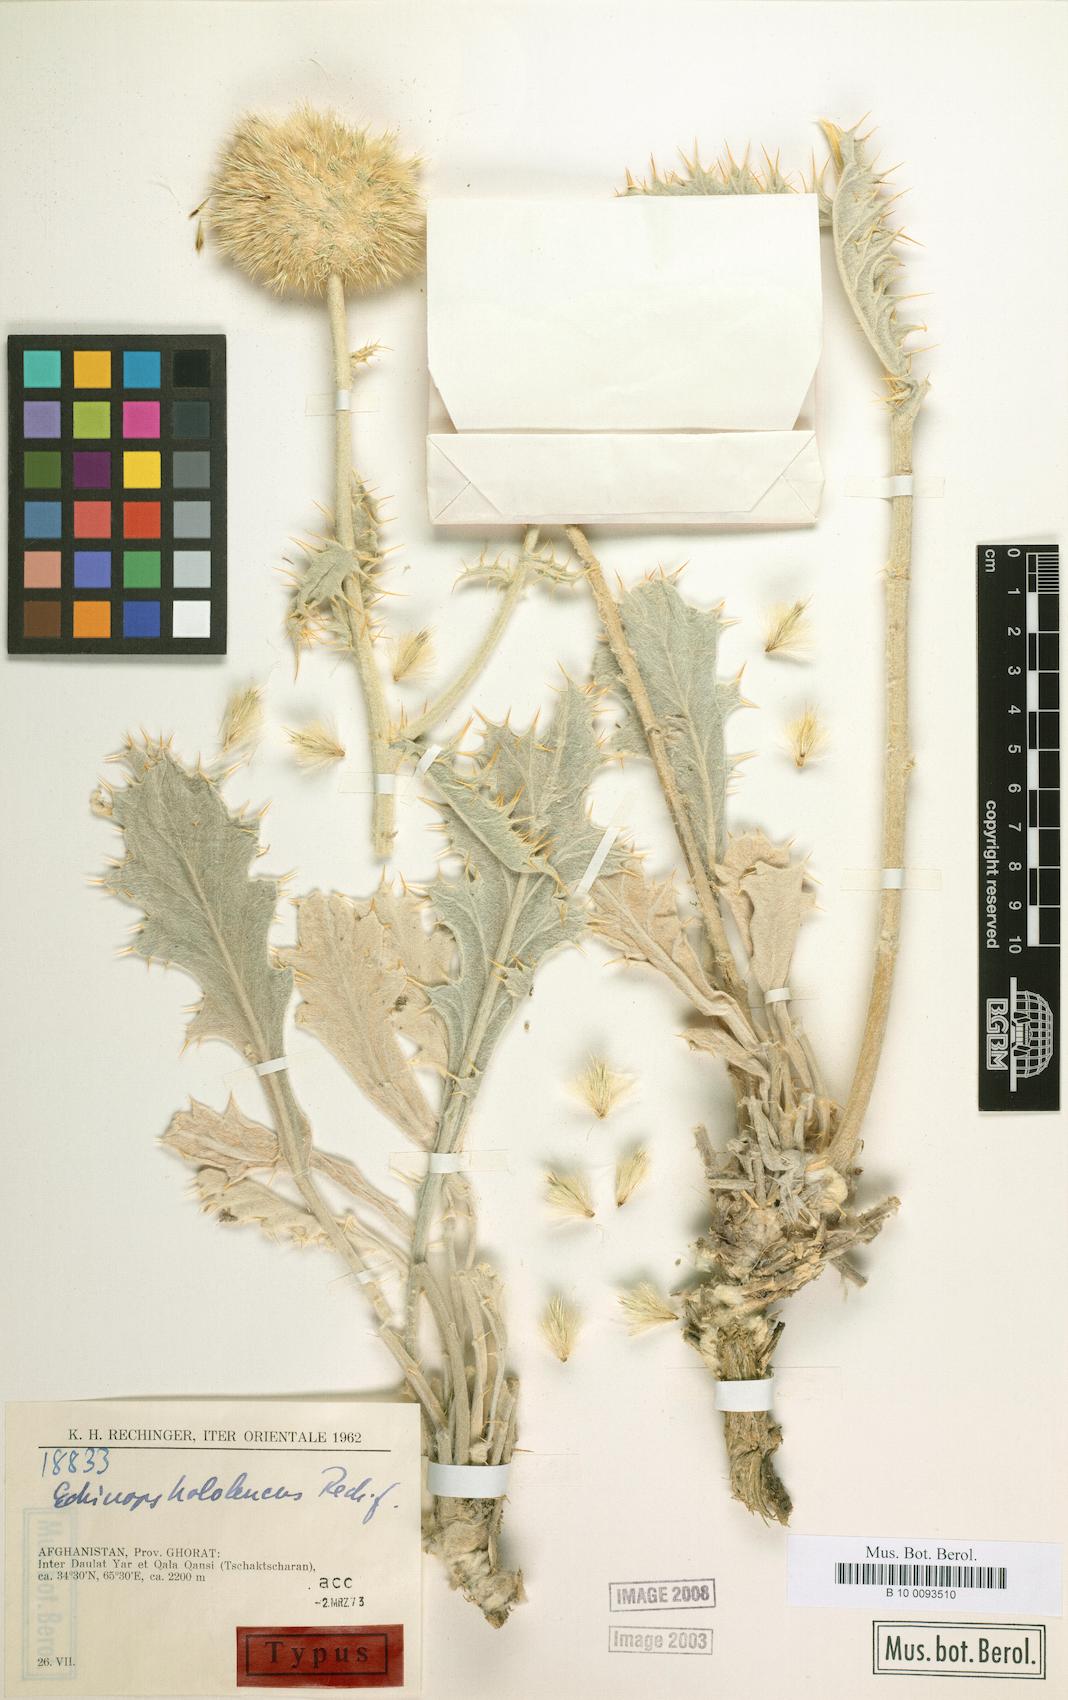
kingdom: Plantae
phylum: Tracheophyta
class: Magnoliopsida
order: Asterales
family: Asteraceae
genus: Echinops
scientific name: Echinops hololeucus
